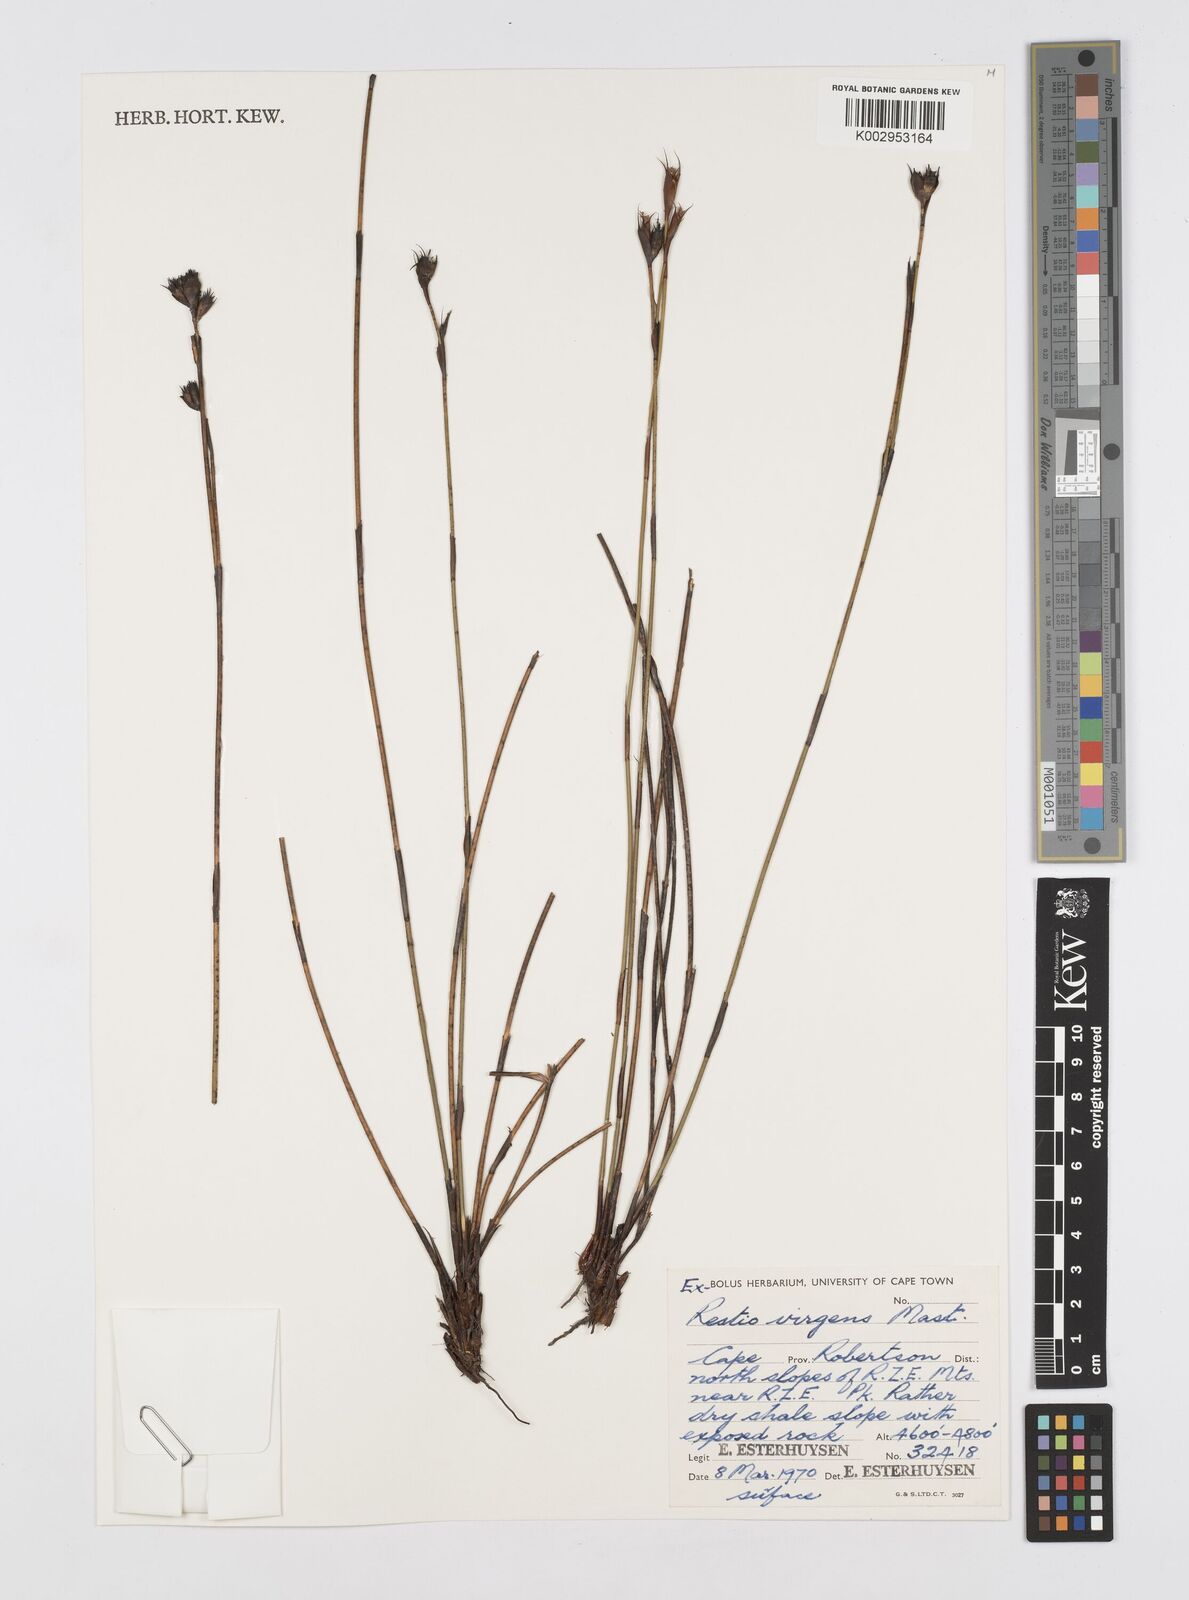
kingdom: Plantae
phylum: Tracheophyta
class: Liliopsida
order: Poales
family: Restionaceae
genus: Restio
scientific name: Restio virgeus
